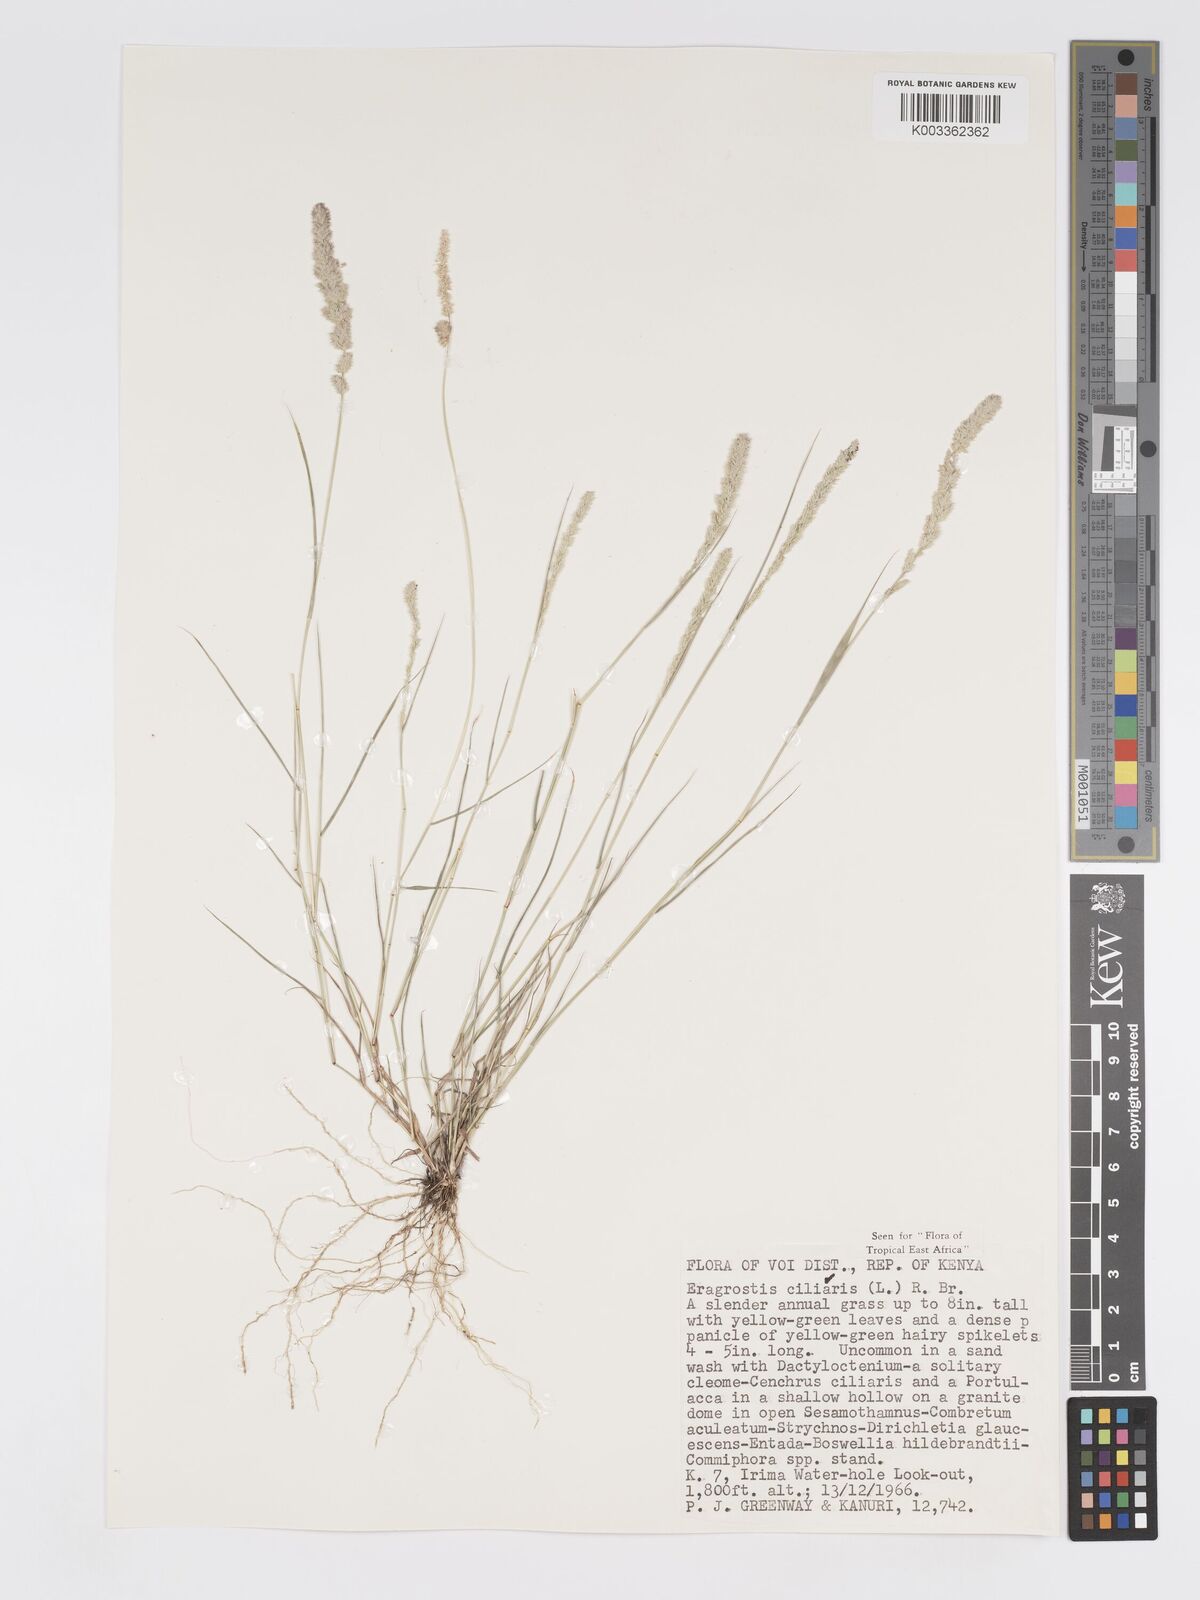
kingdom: Plantae
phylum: Tracheophyta
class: Liliopsida
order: Poales
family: Poaceae
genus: Eragrostis
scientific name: Eragrostis ciliaris
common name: Gophertail lovegrass
